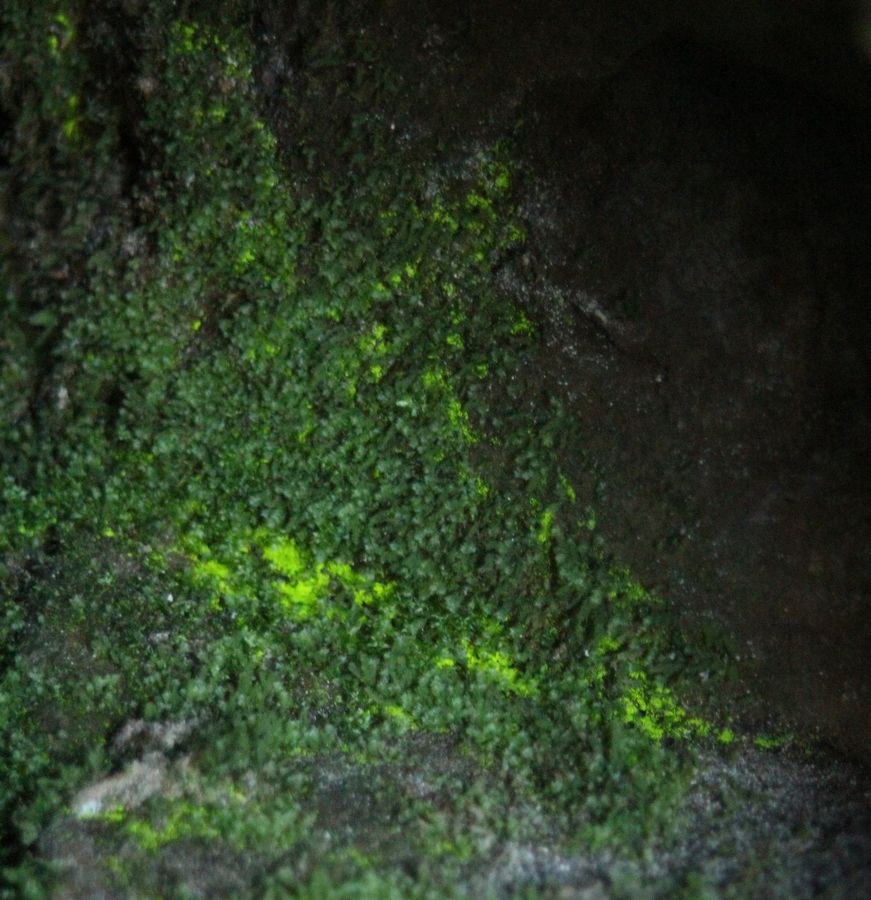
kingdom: Plantae
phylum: Bryophyta
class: Bryopsida
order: Dicranales
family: Schistostegaceae
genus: Schistostega
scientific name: Schistostega pennata
